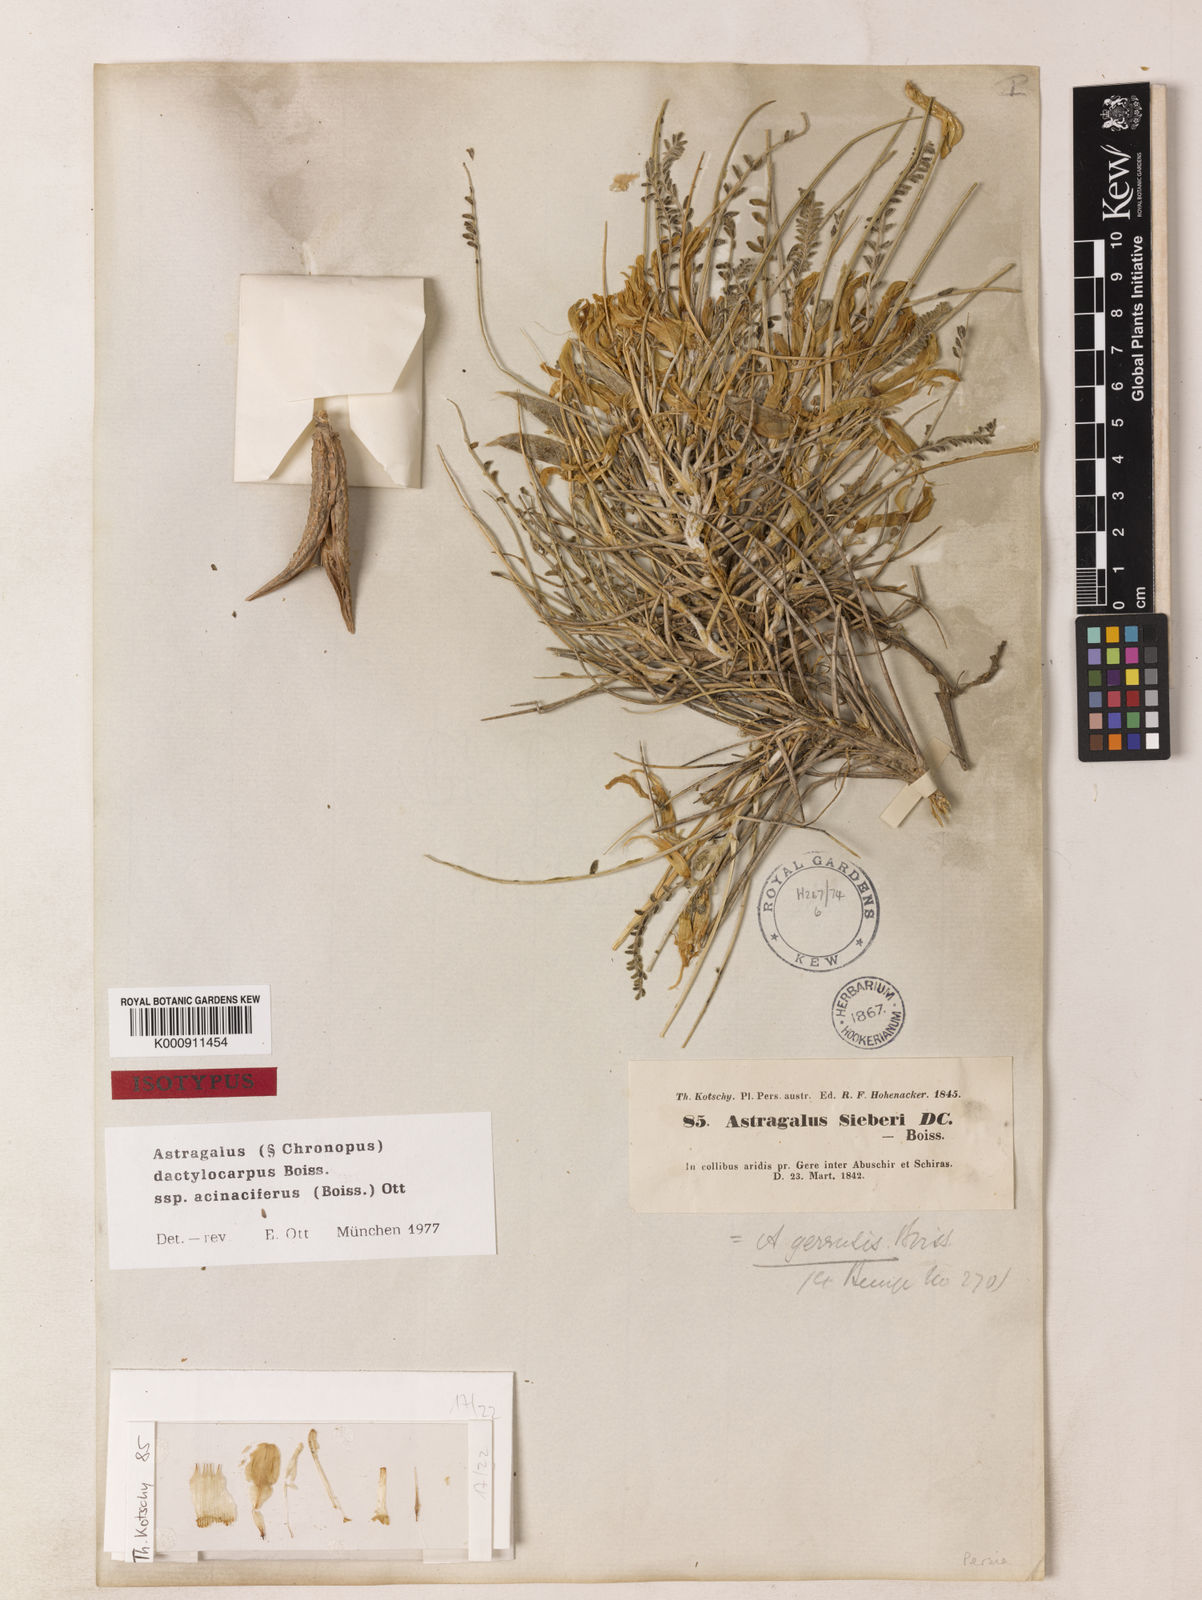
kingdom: Plantae
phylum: Tracheophyta
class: Magnoliopsida
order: Fabales
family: Fabaceae
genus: Astragalus
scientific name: Astragalus dactylocarpus
